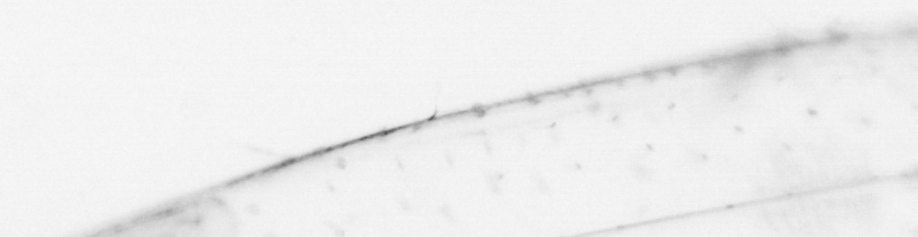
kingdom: Animalia
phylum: Chaetognatha
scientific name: Chaetognatha
